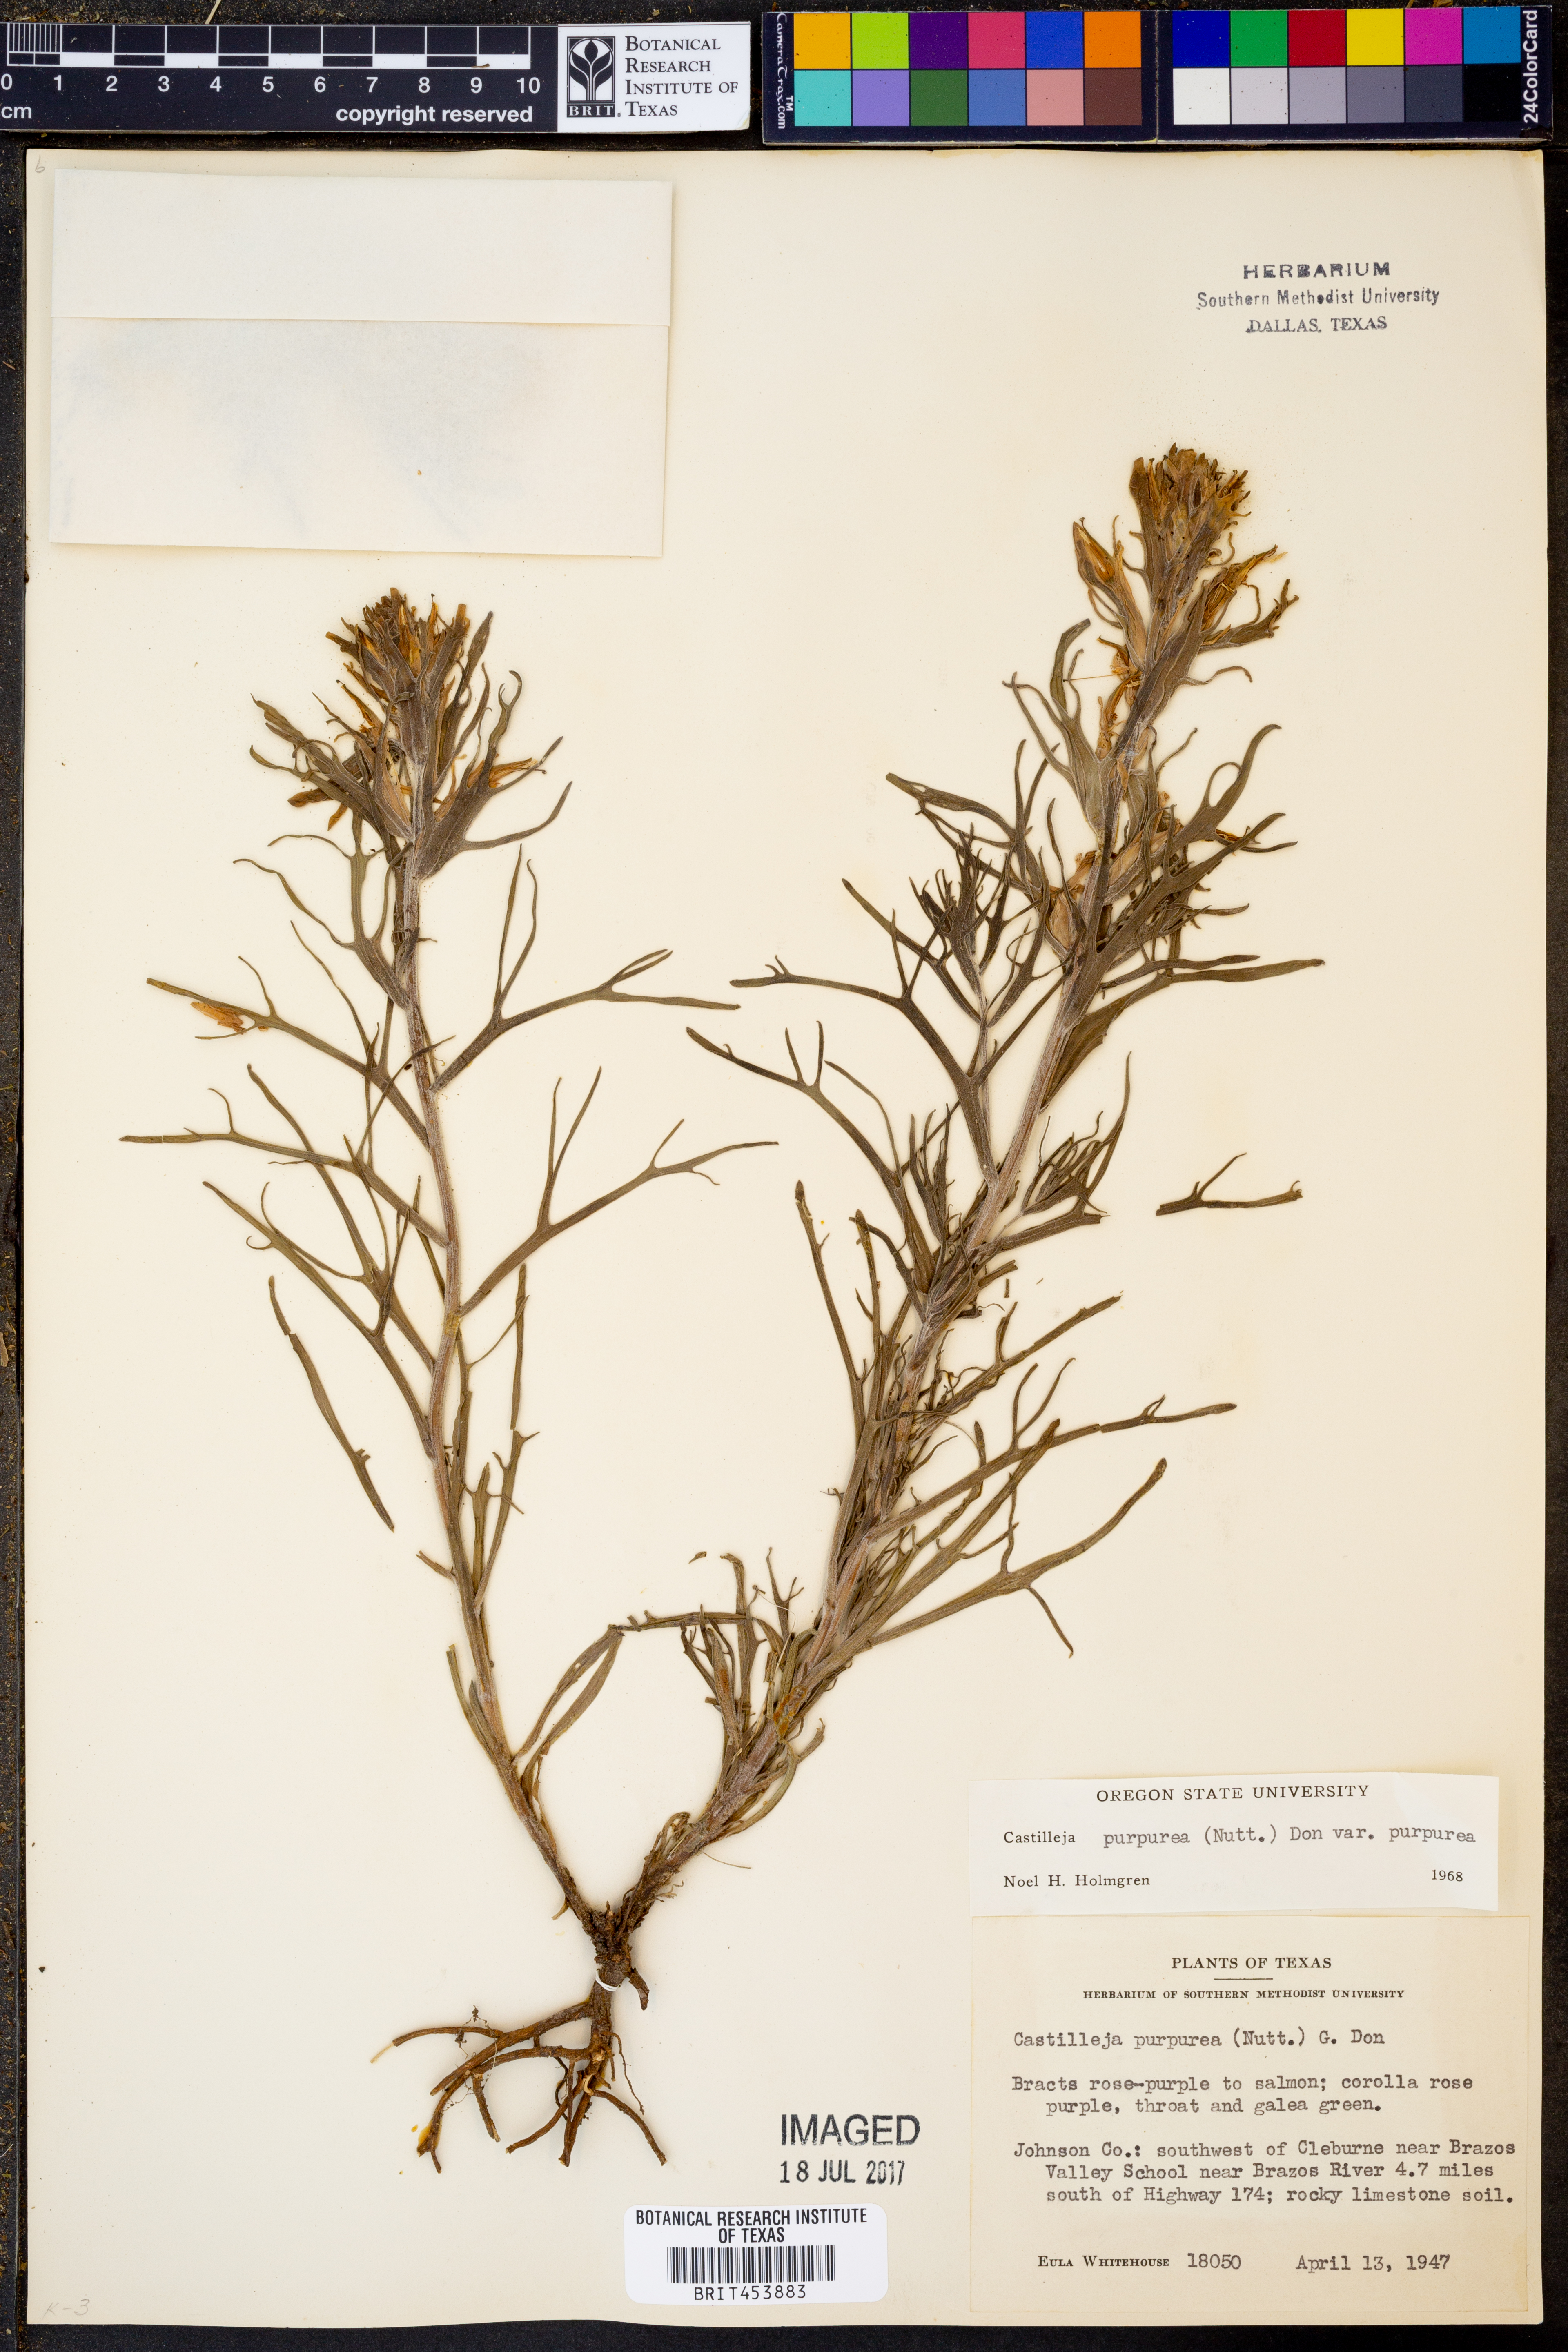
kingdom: Plantae
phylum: Tracheophyta
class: Magnoliopsida
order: Lamiales
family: Orobanchaceae
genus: Castilleja
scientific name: Castilleja purpurea
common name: Plains paintbrush
